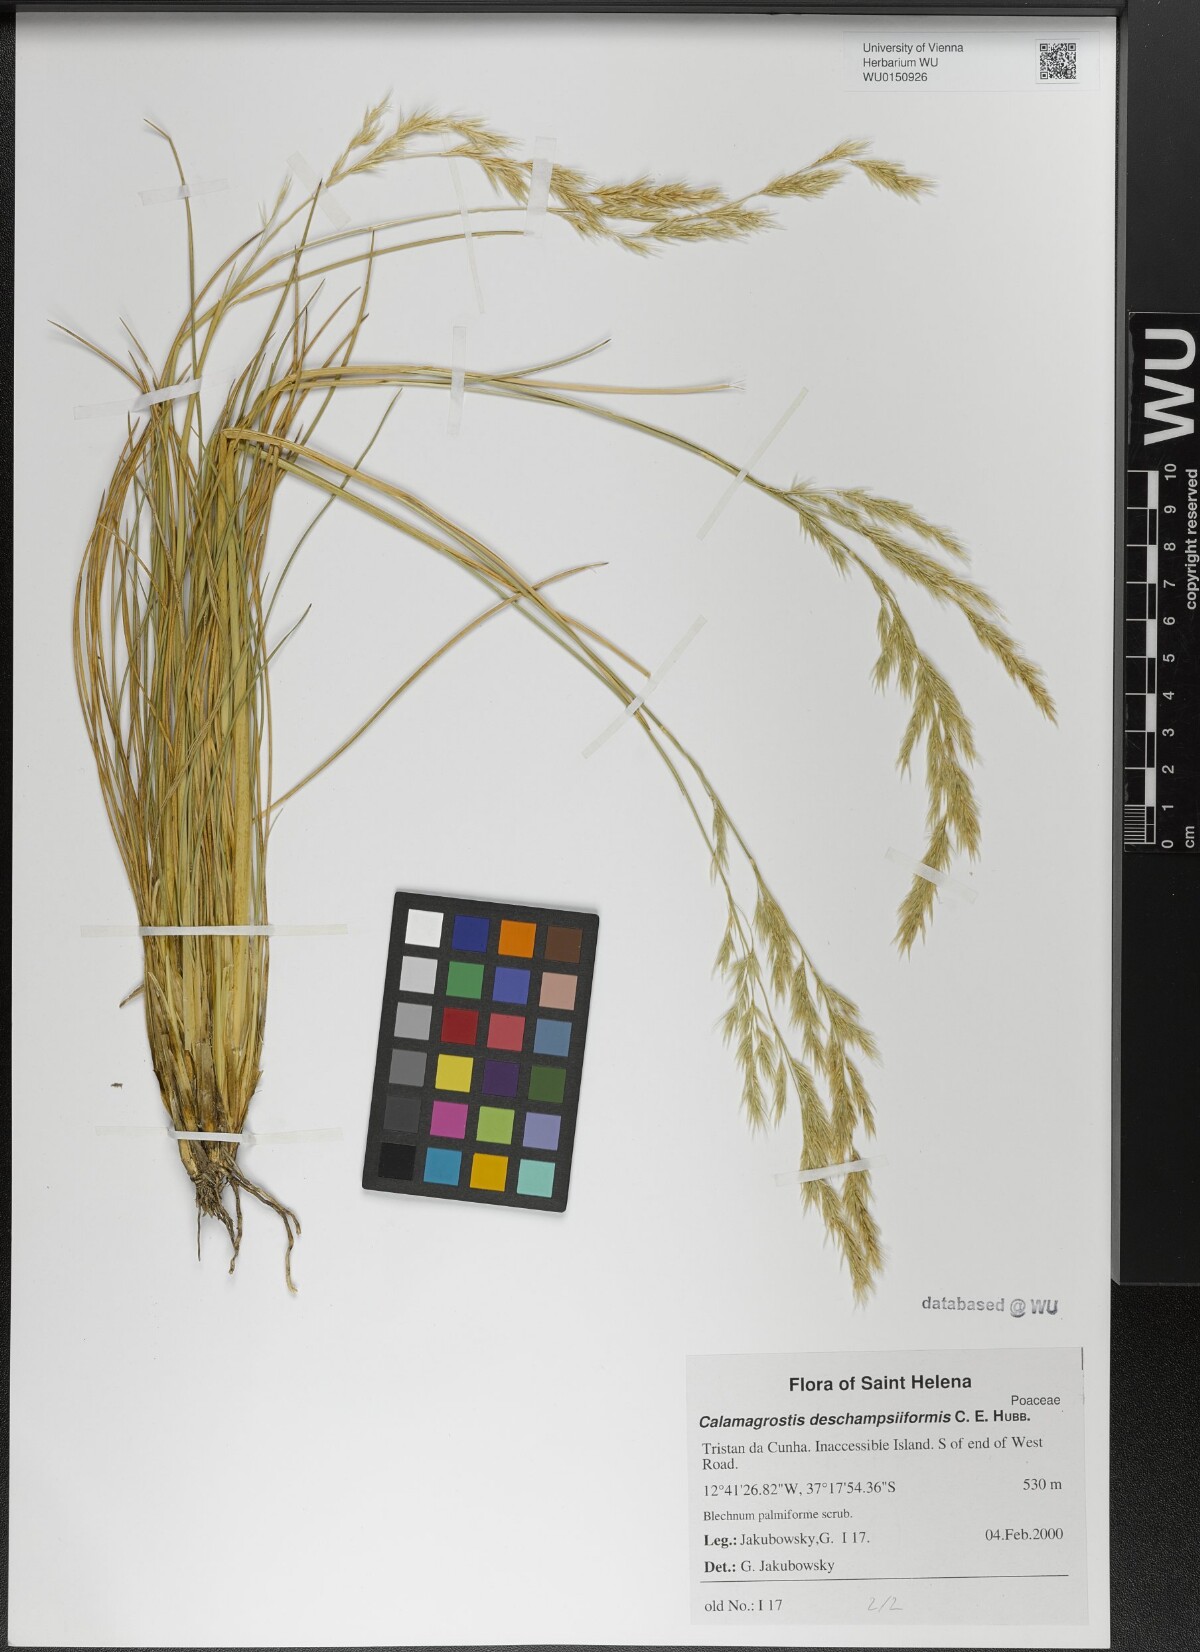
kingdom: Plantae
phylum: Tracheophyta
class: Liliopsida
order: Poales
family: Poaceae
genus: Calamagrostis
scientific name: Calamagrostis deschampsiiformis
